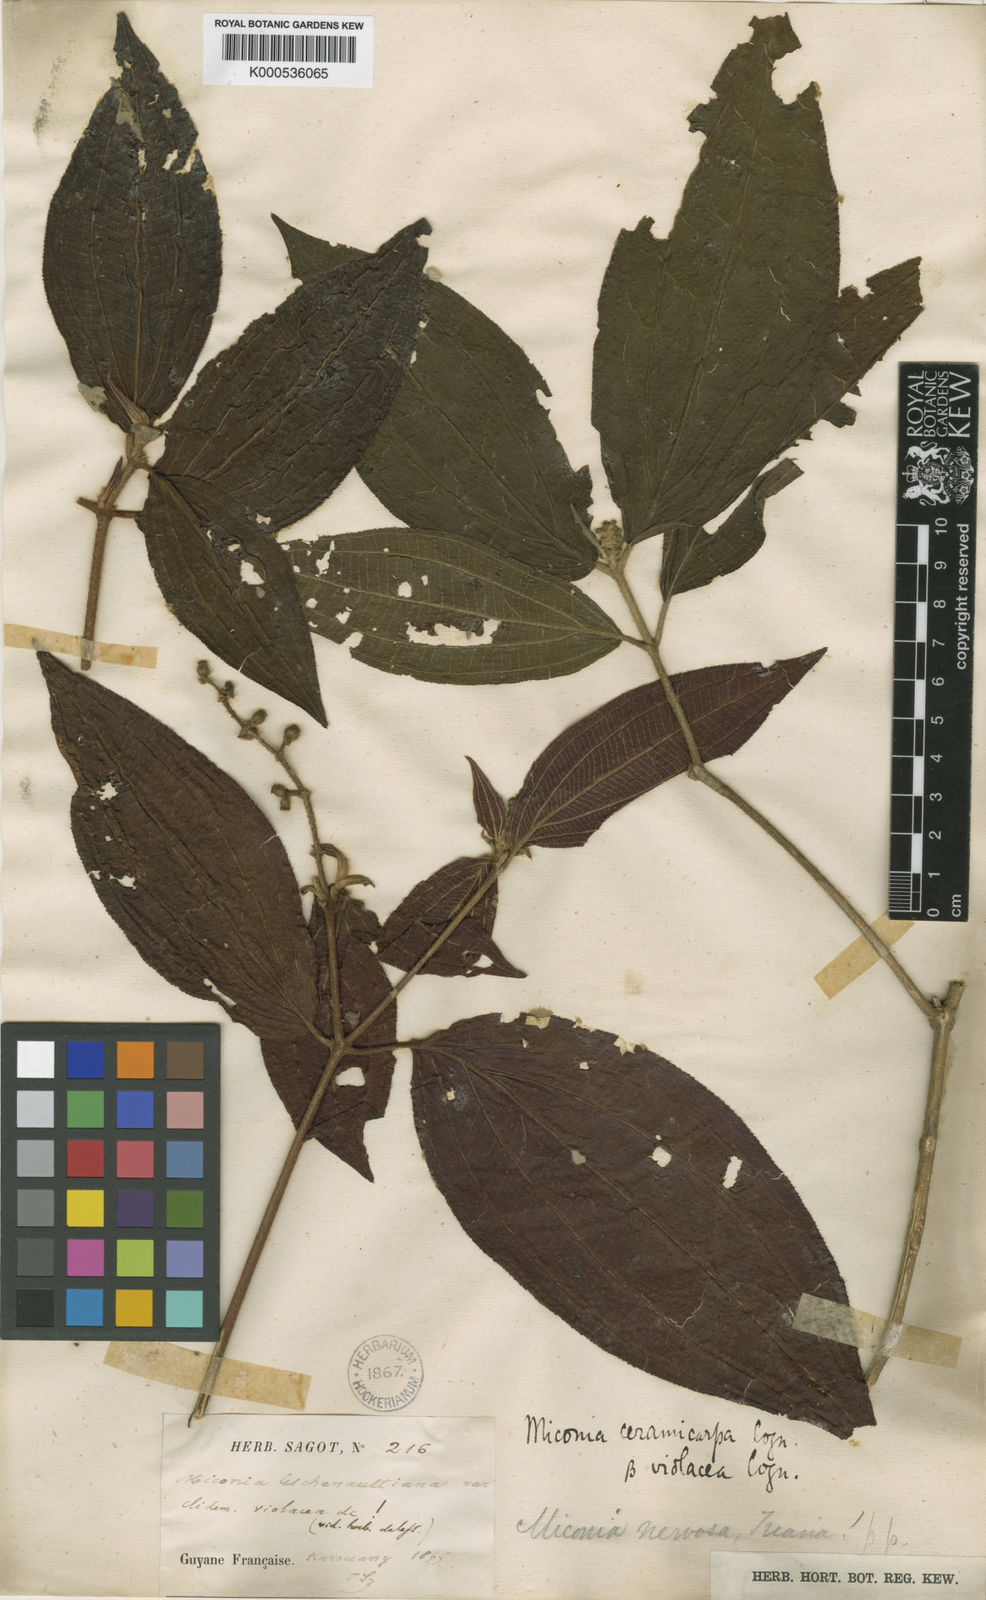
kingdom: Plantae
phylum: Tracheophyta
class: Magnoliopsida
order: Myrtales
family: Melastomataceae
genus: Miconia
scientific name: Miconia ceramicarpa
